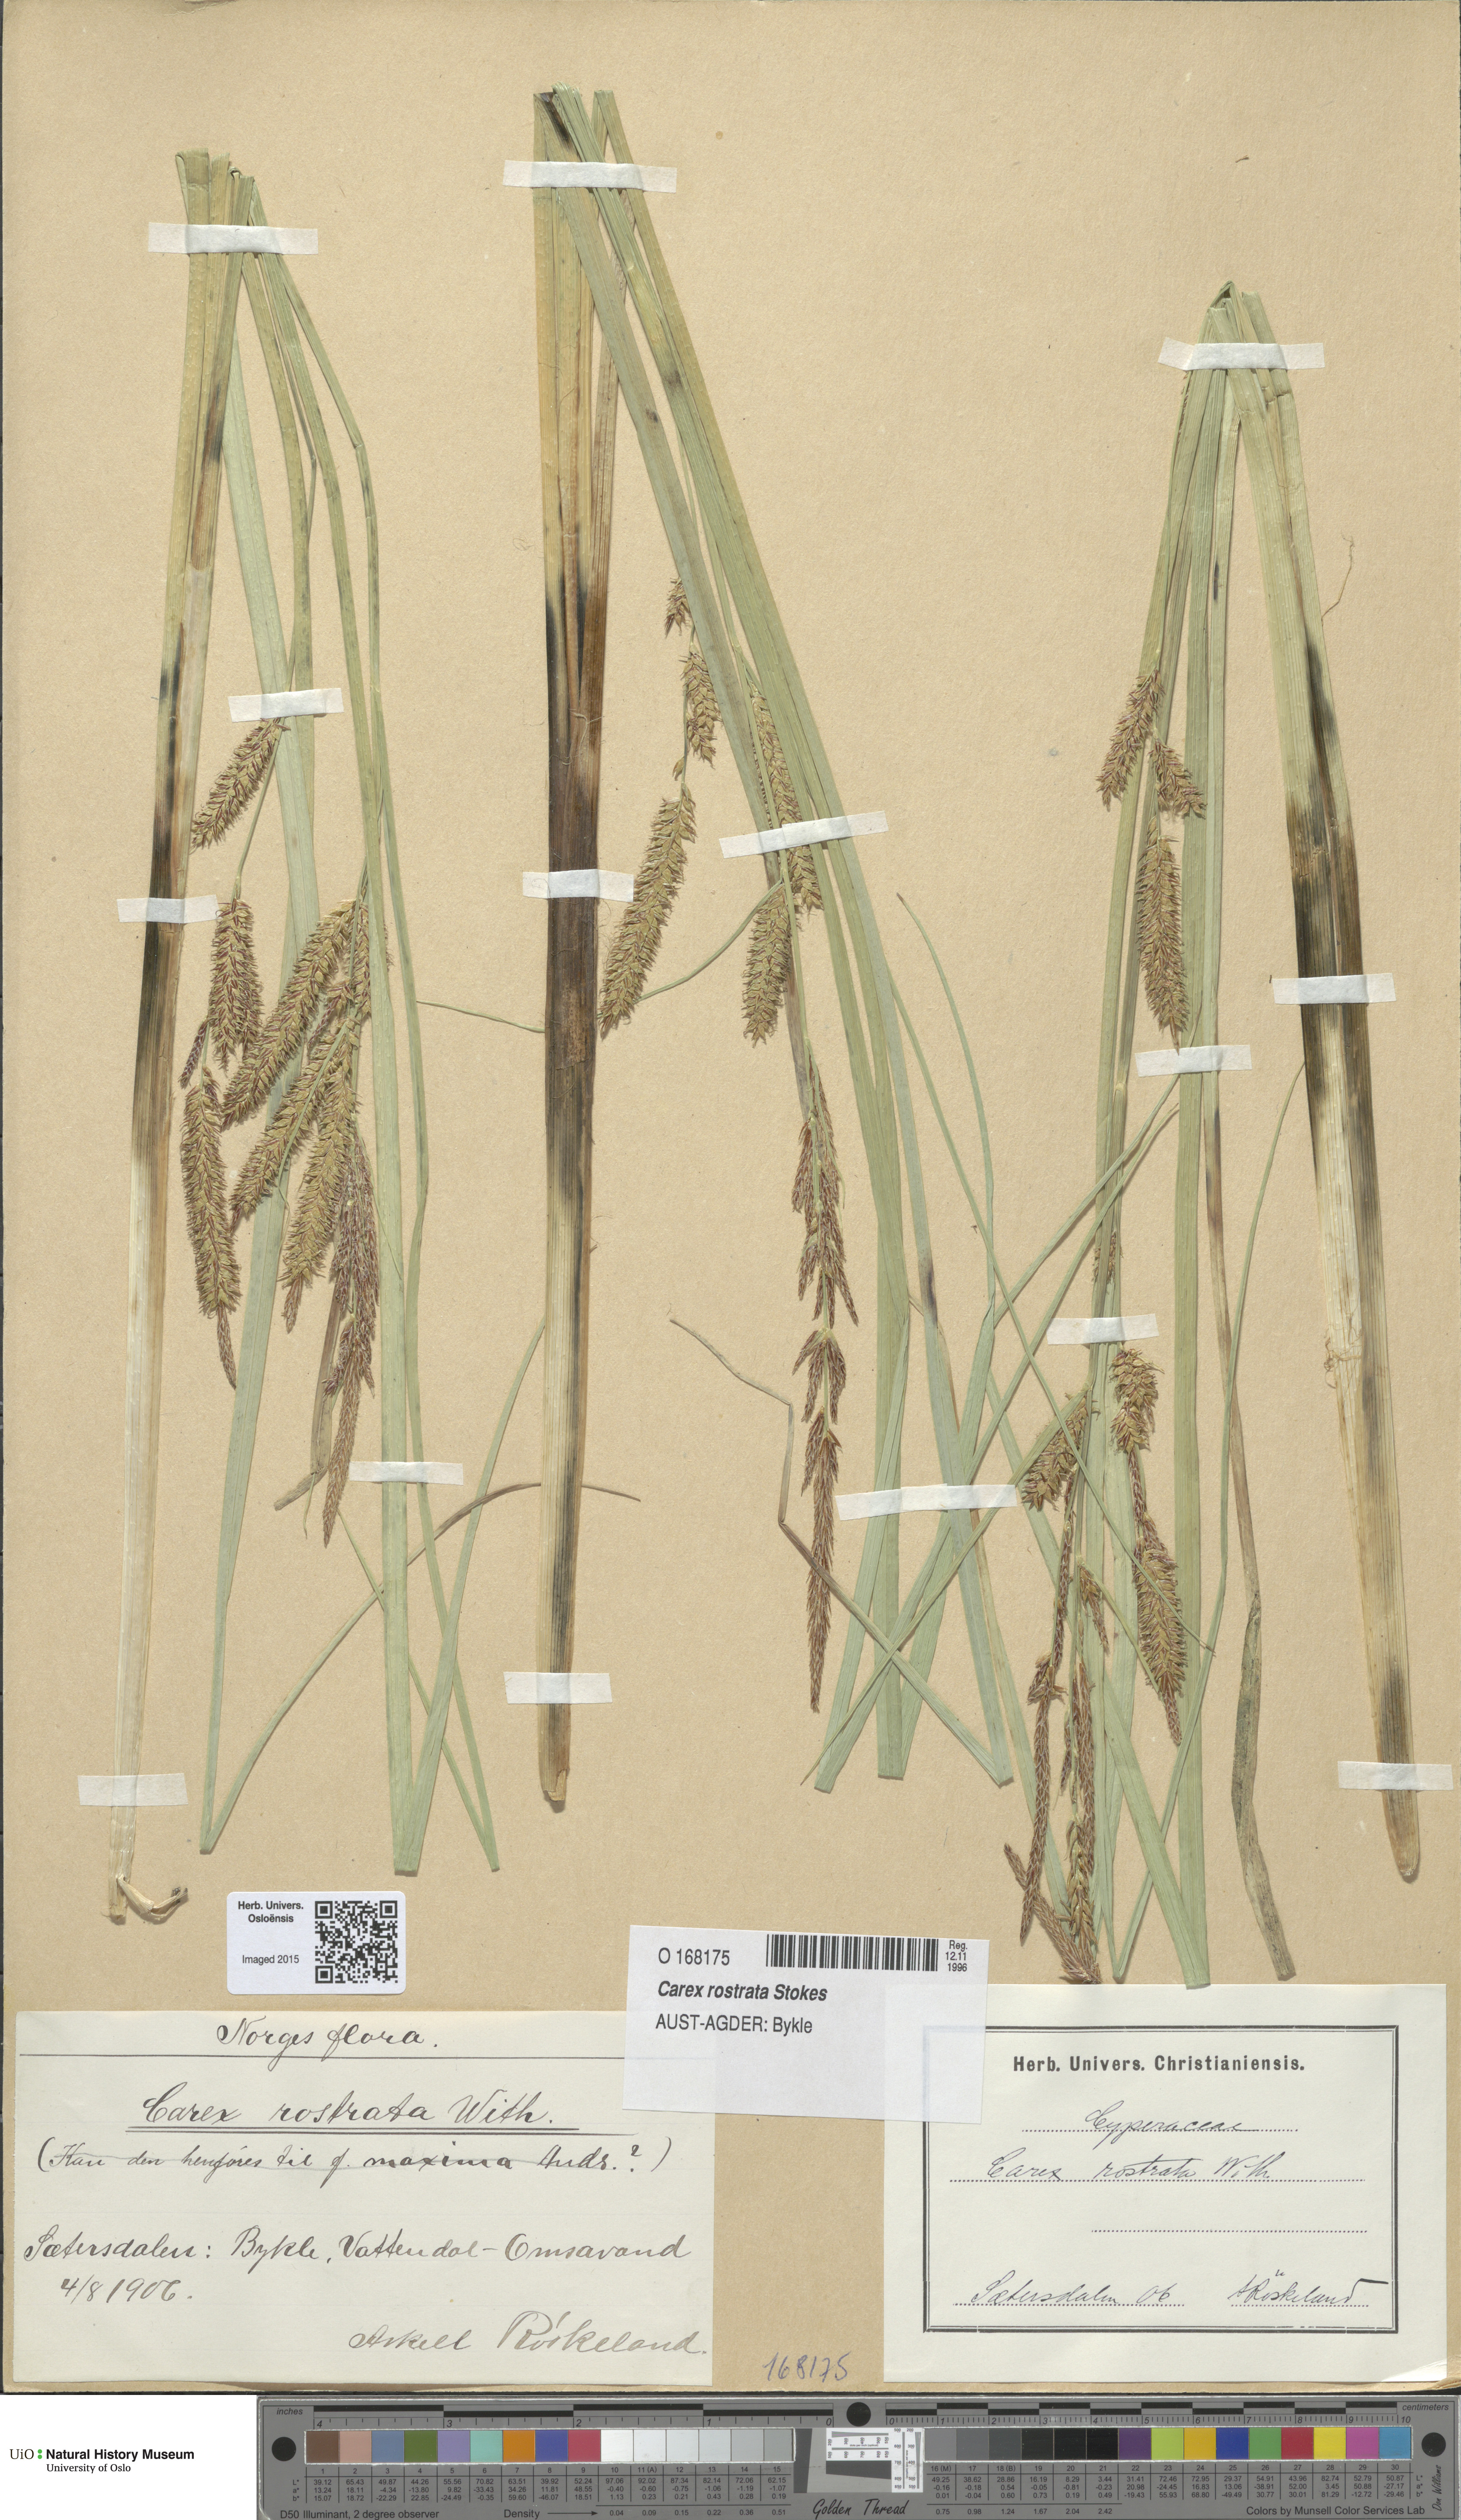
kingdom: Plantae
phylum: Tracheophyta
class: Liliopsida
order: Poales
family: Cyperaceae
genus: Carex
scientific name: Carex rostrata
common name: Bottle sedge
